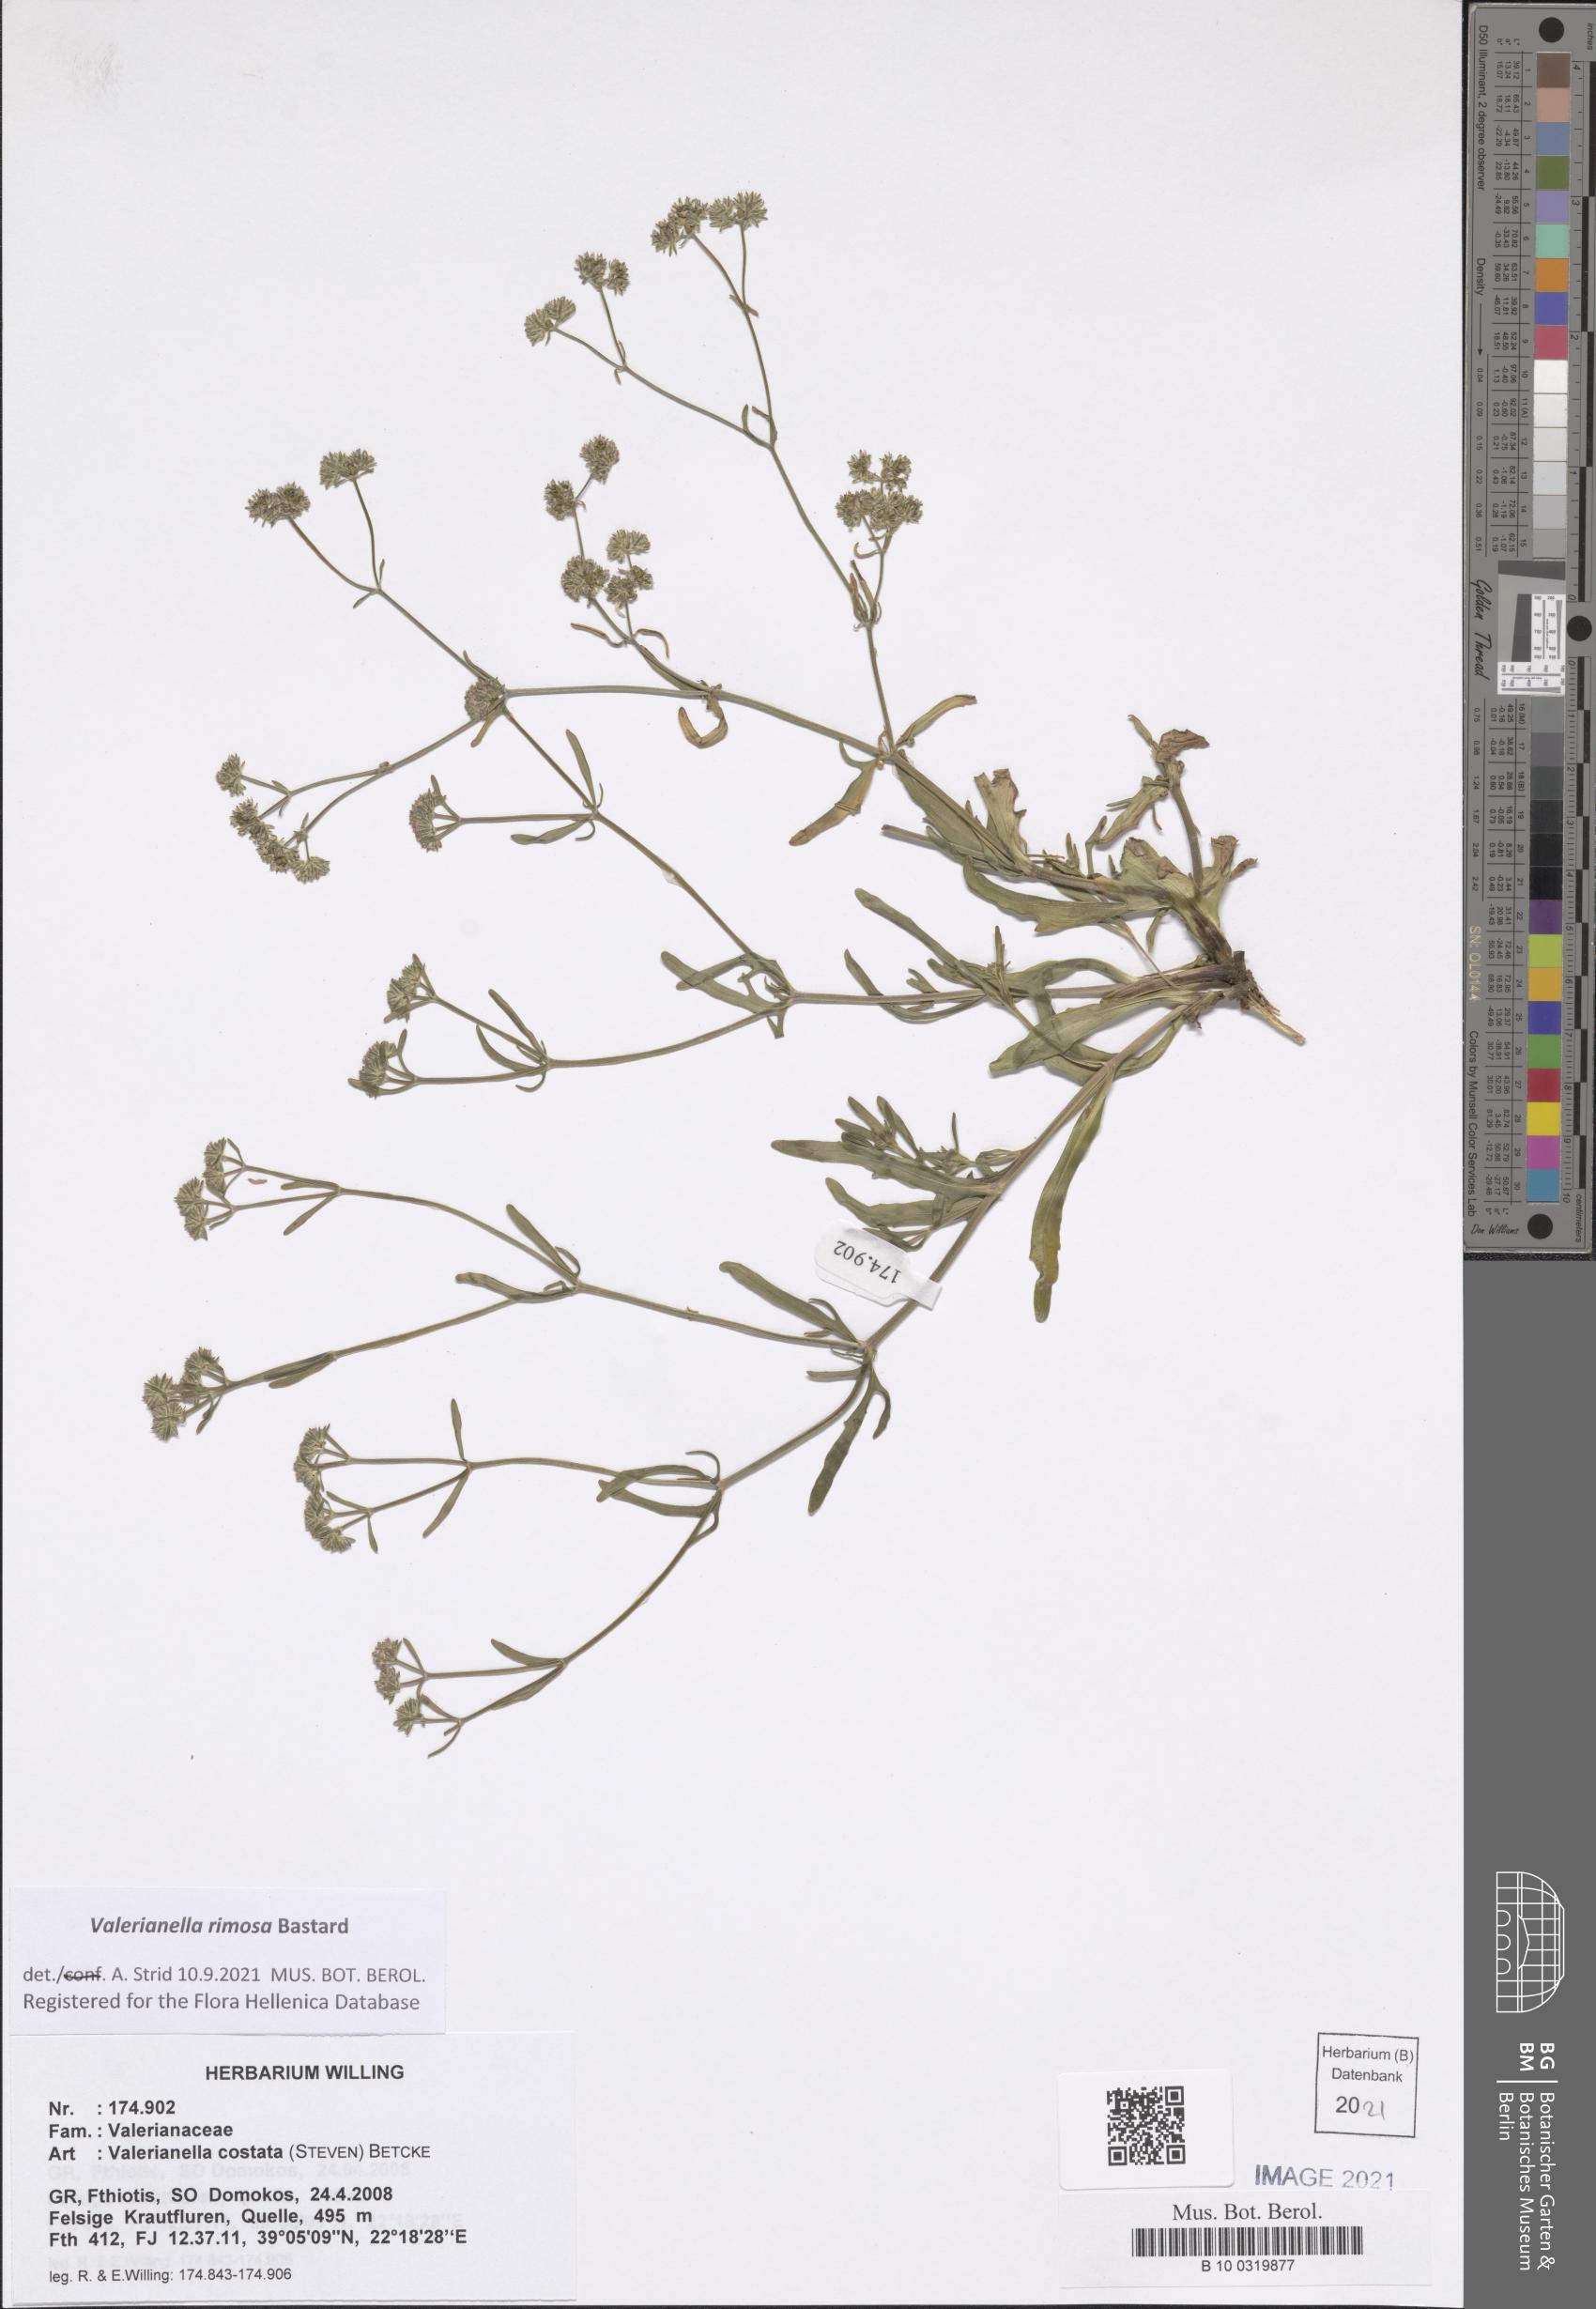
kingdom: Plantae
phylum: Tracheophyta
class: Magnoliopsida
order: Dipsacales
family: Caprifoliaceae
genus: Valerianella
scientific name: Valerianella rimosa
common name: Broad-fruited cornsalad
